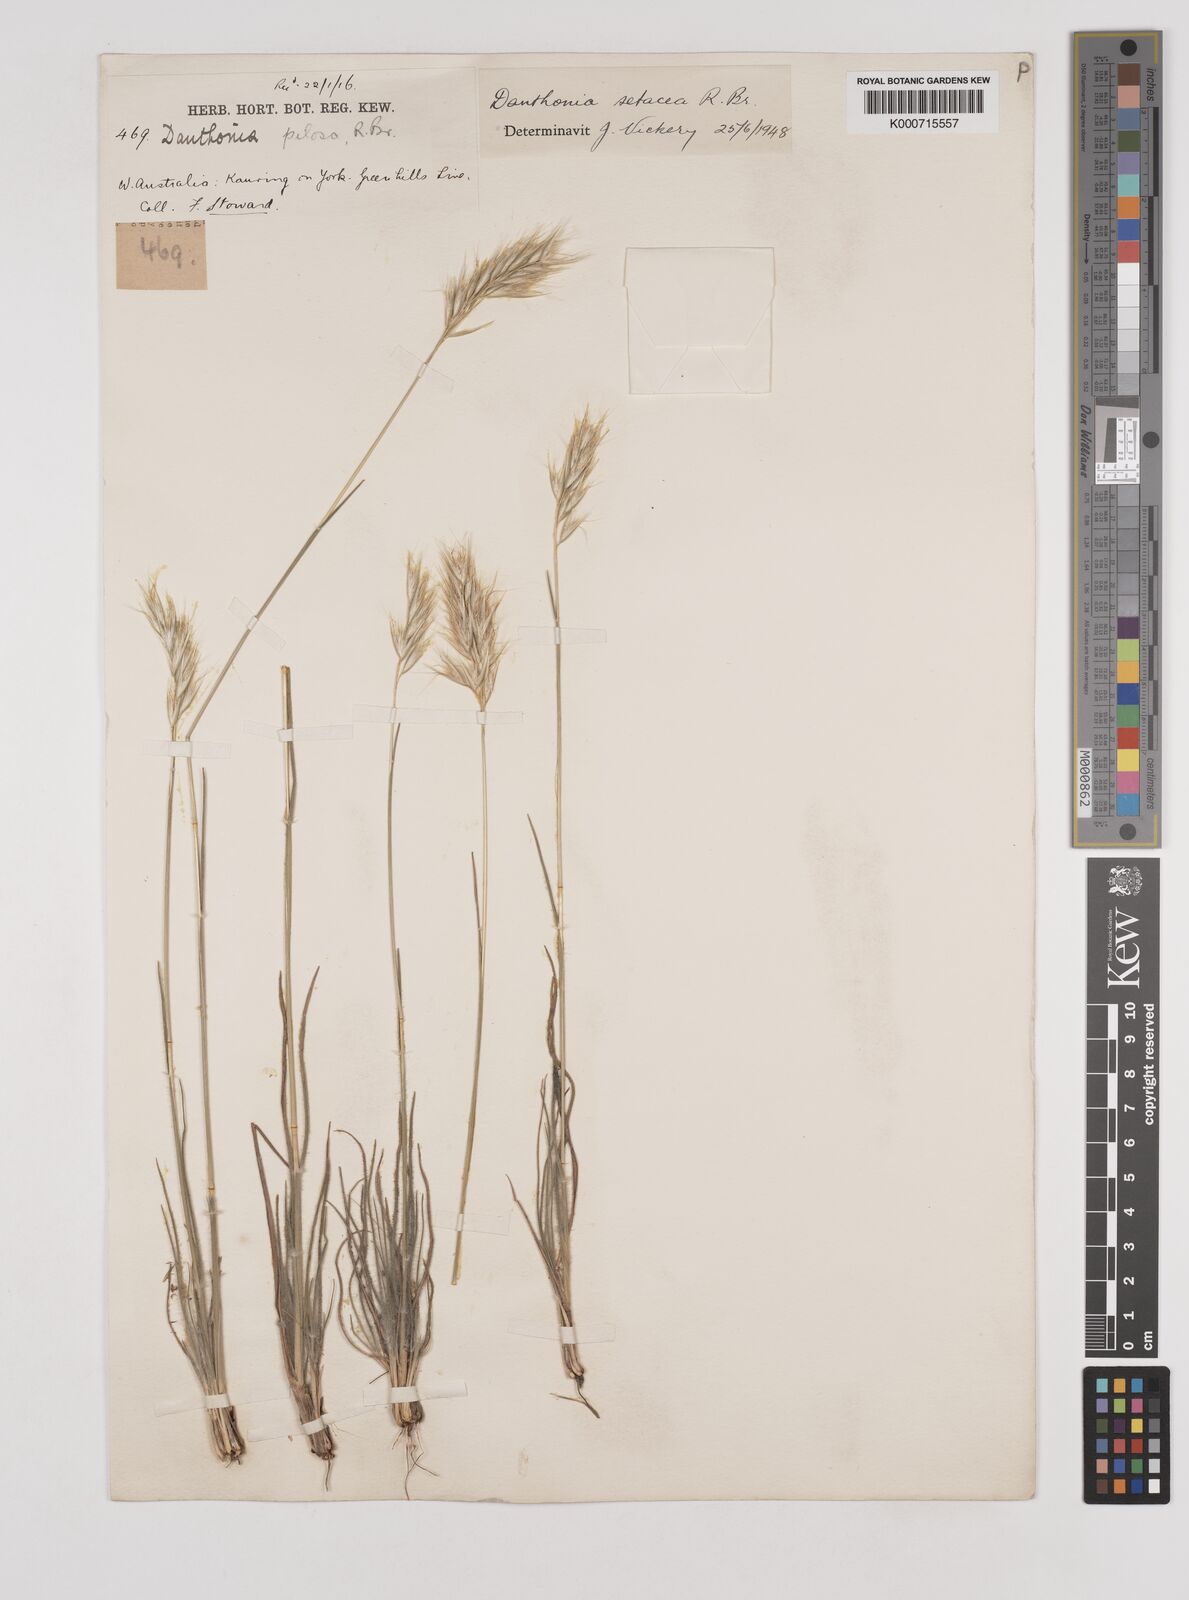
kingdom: Plantae
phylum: Tracheophyta
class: Liliopsida
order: Poales
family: Poaceae
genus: Rytidosperma
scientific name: Rytidosperma setaceum
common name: Small-flower wallaby grass
